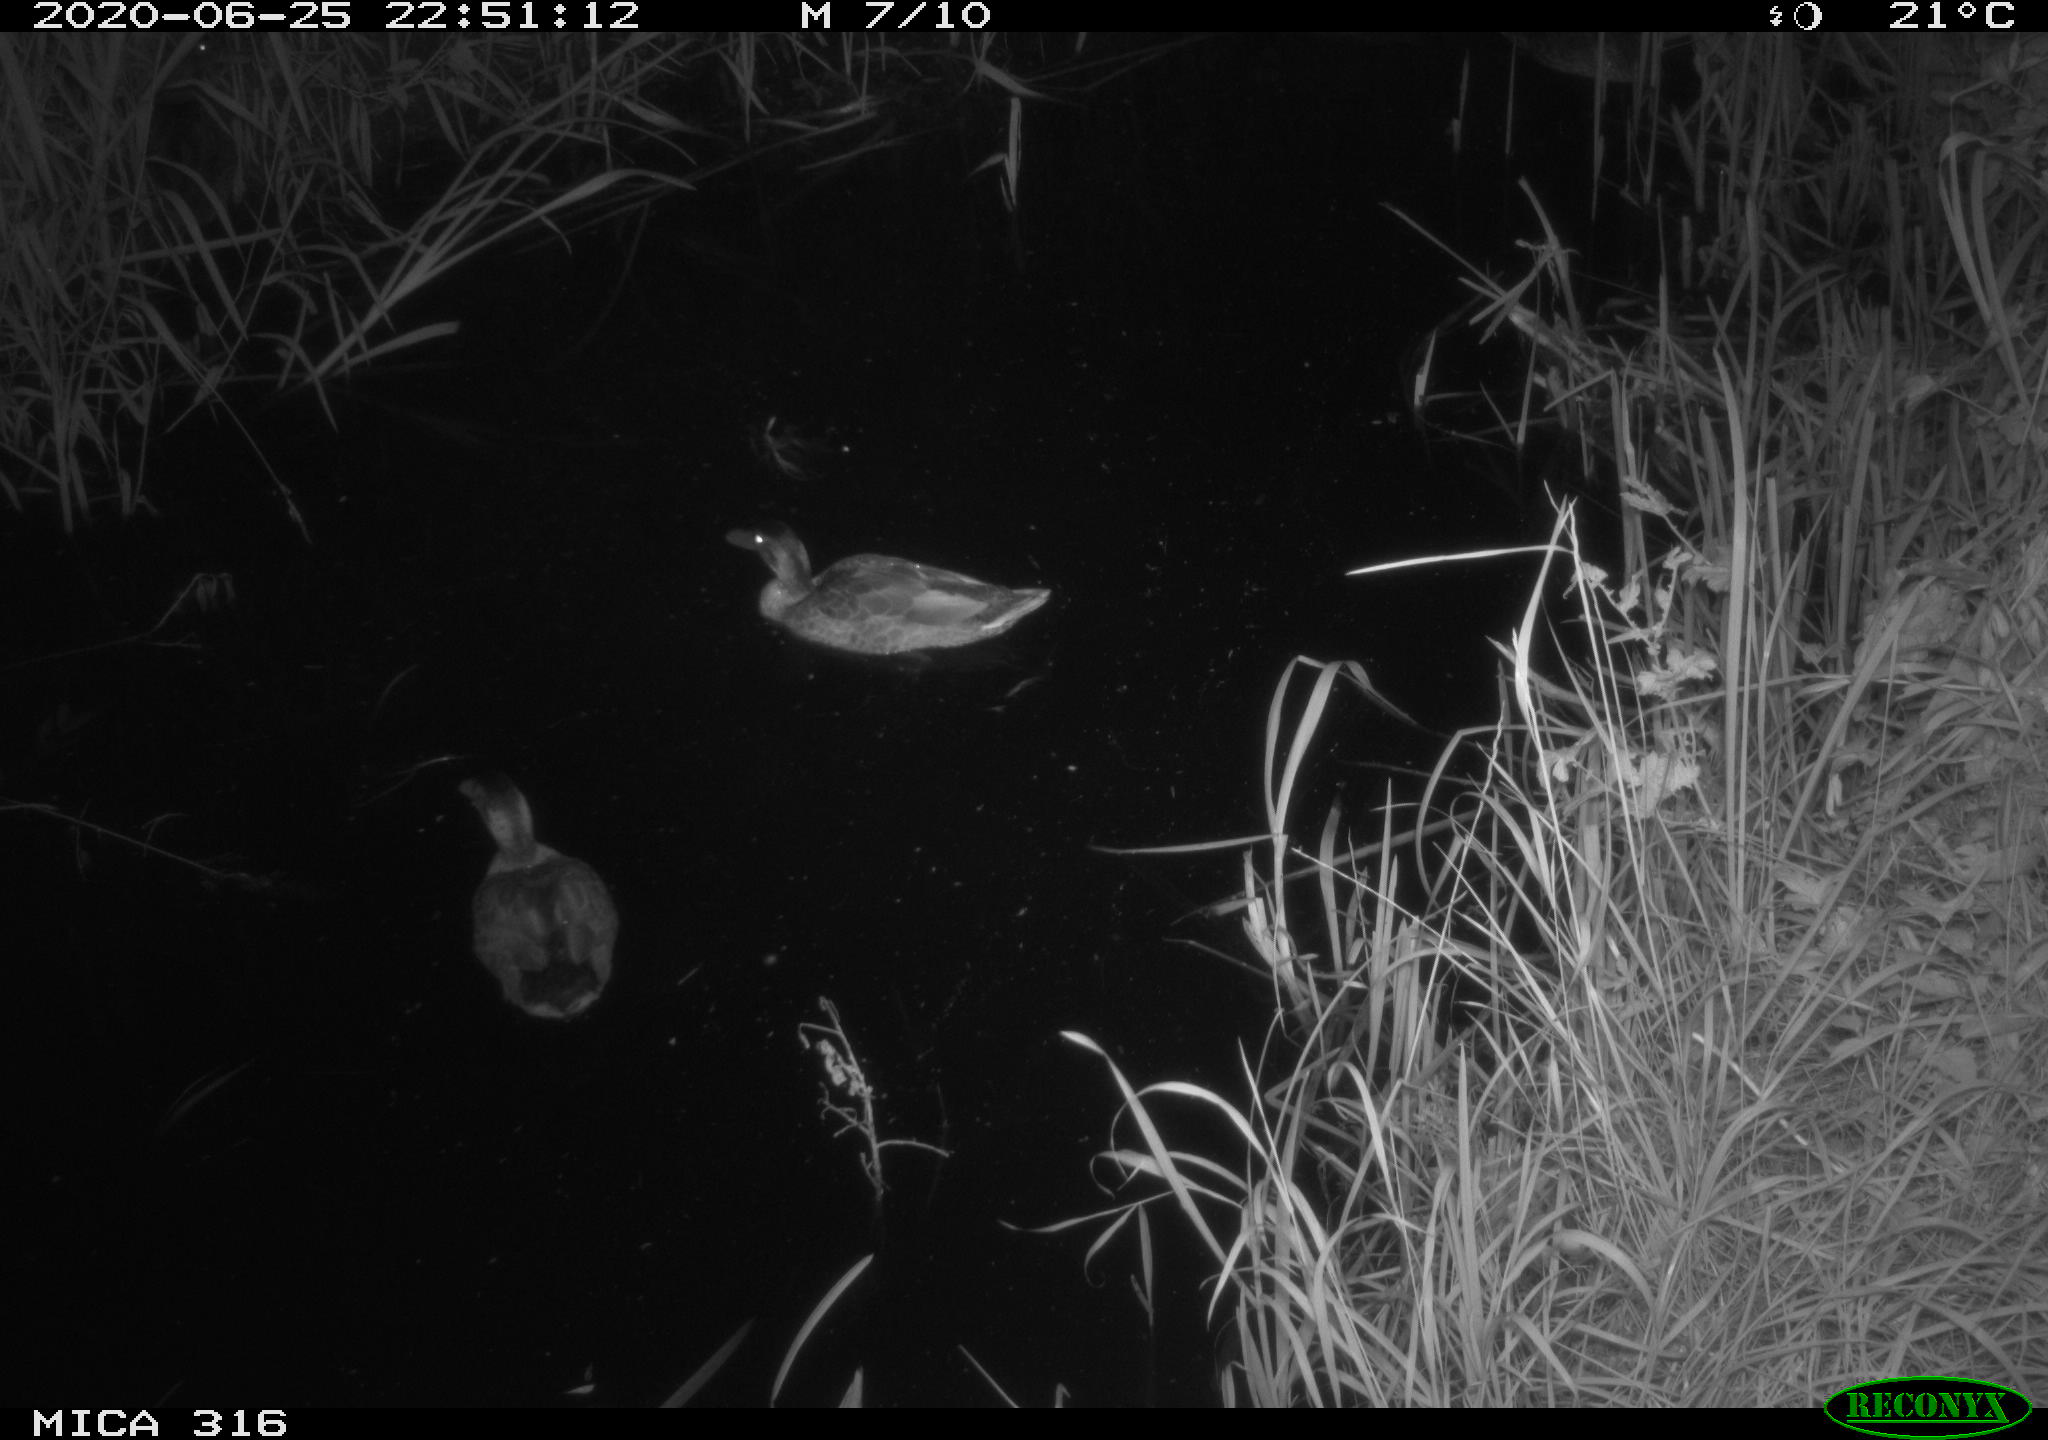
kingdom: Animalia
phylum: Chordata
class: Aves
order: Anseriformes
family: Anatidae
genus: Anas
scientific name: Anas platyrhynchos
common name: Mallard
